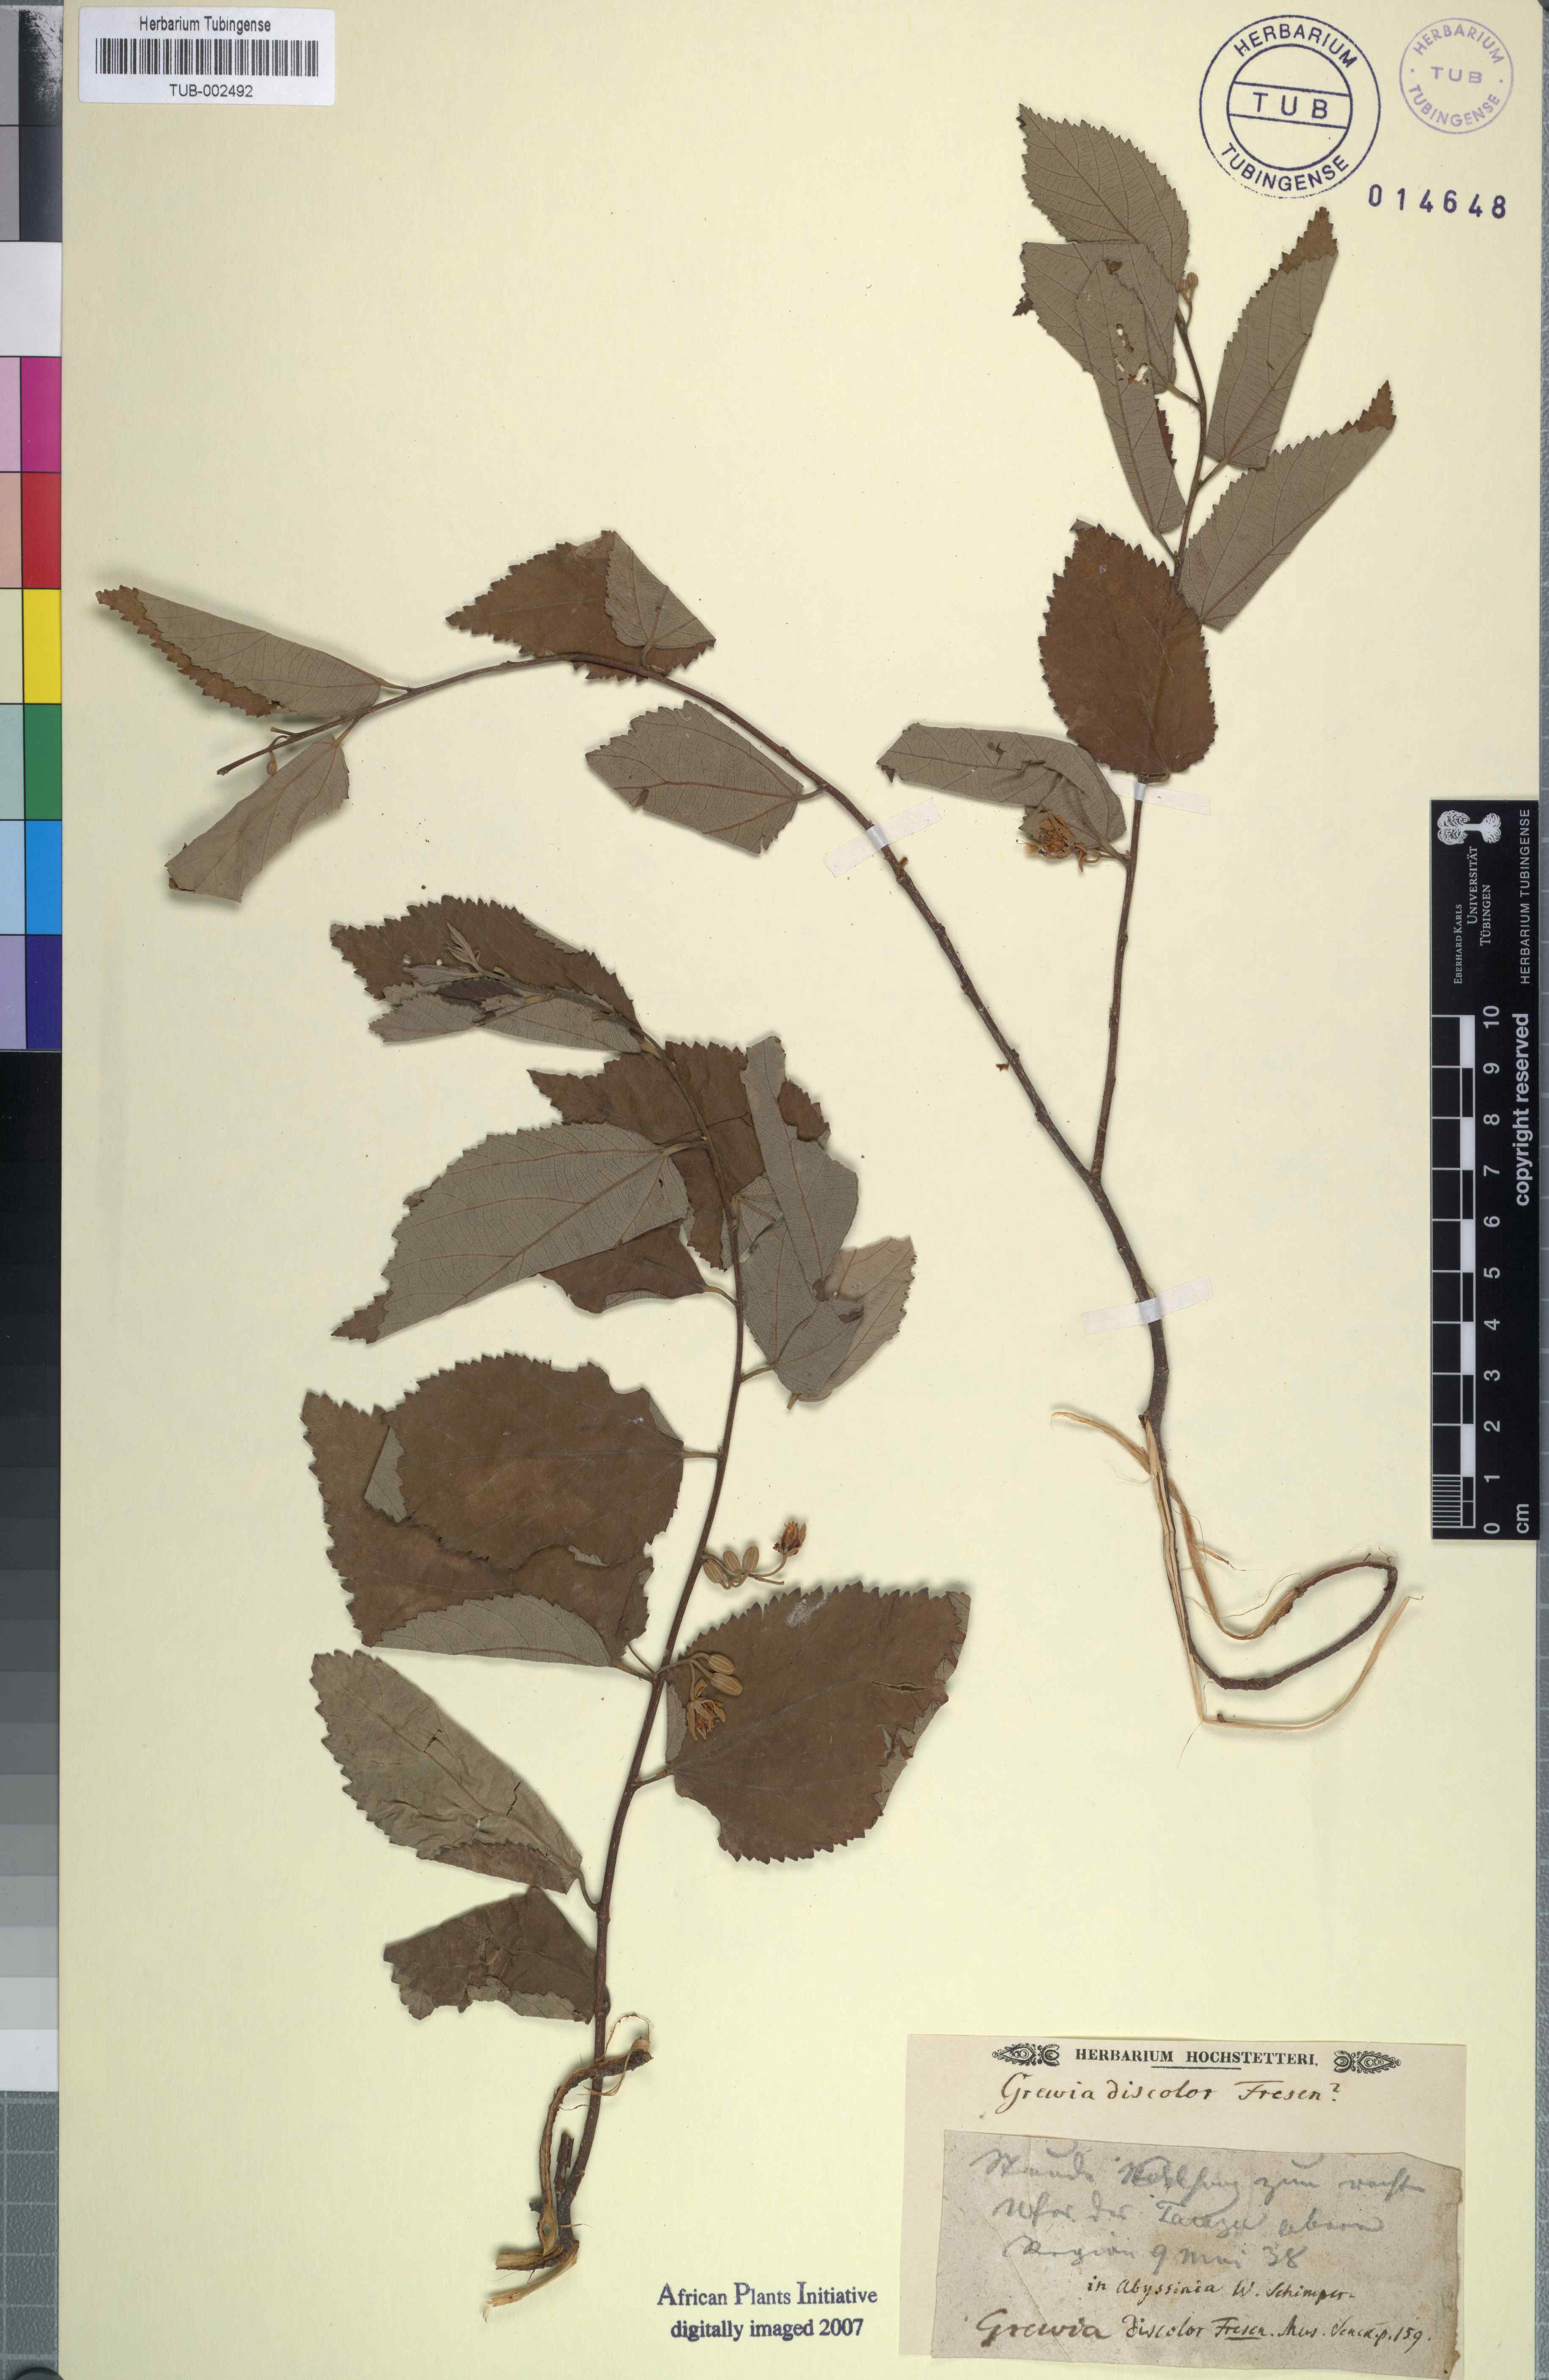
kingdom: Plantae
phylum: Tracheophyta
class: Magnoliopsida
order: Malvales
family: Malvaceae
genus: Grewia
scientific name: Grewia bicolor
